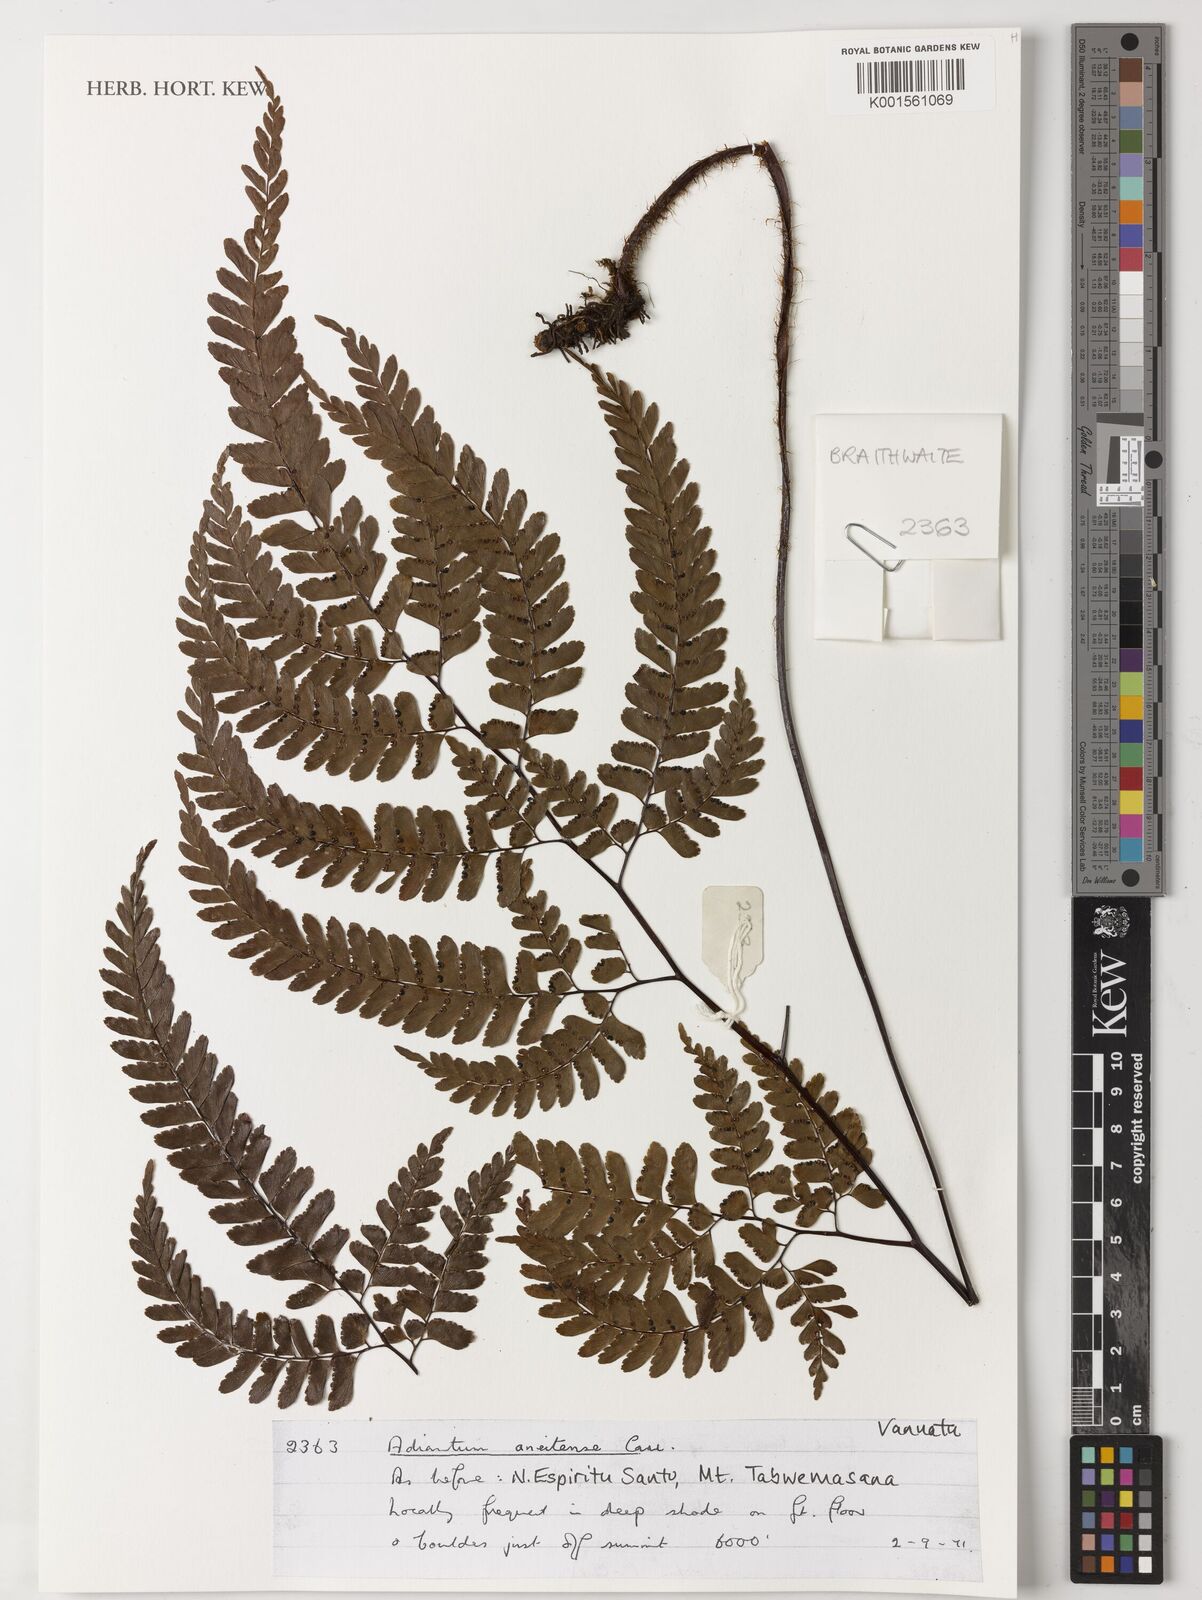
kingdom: Plantae
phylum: Tracheophyta
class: Polypodiopsida
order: Polypodiales
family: Pteridaceae
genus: Adiantum
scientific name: Adiantum aneitense
